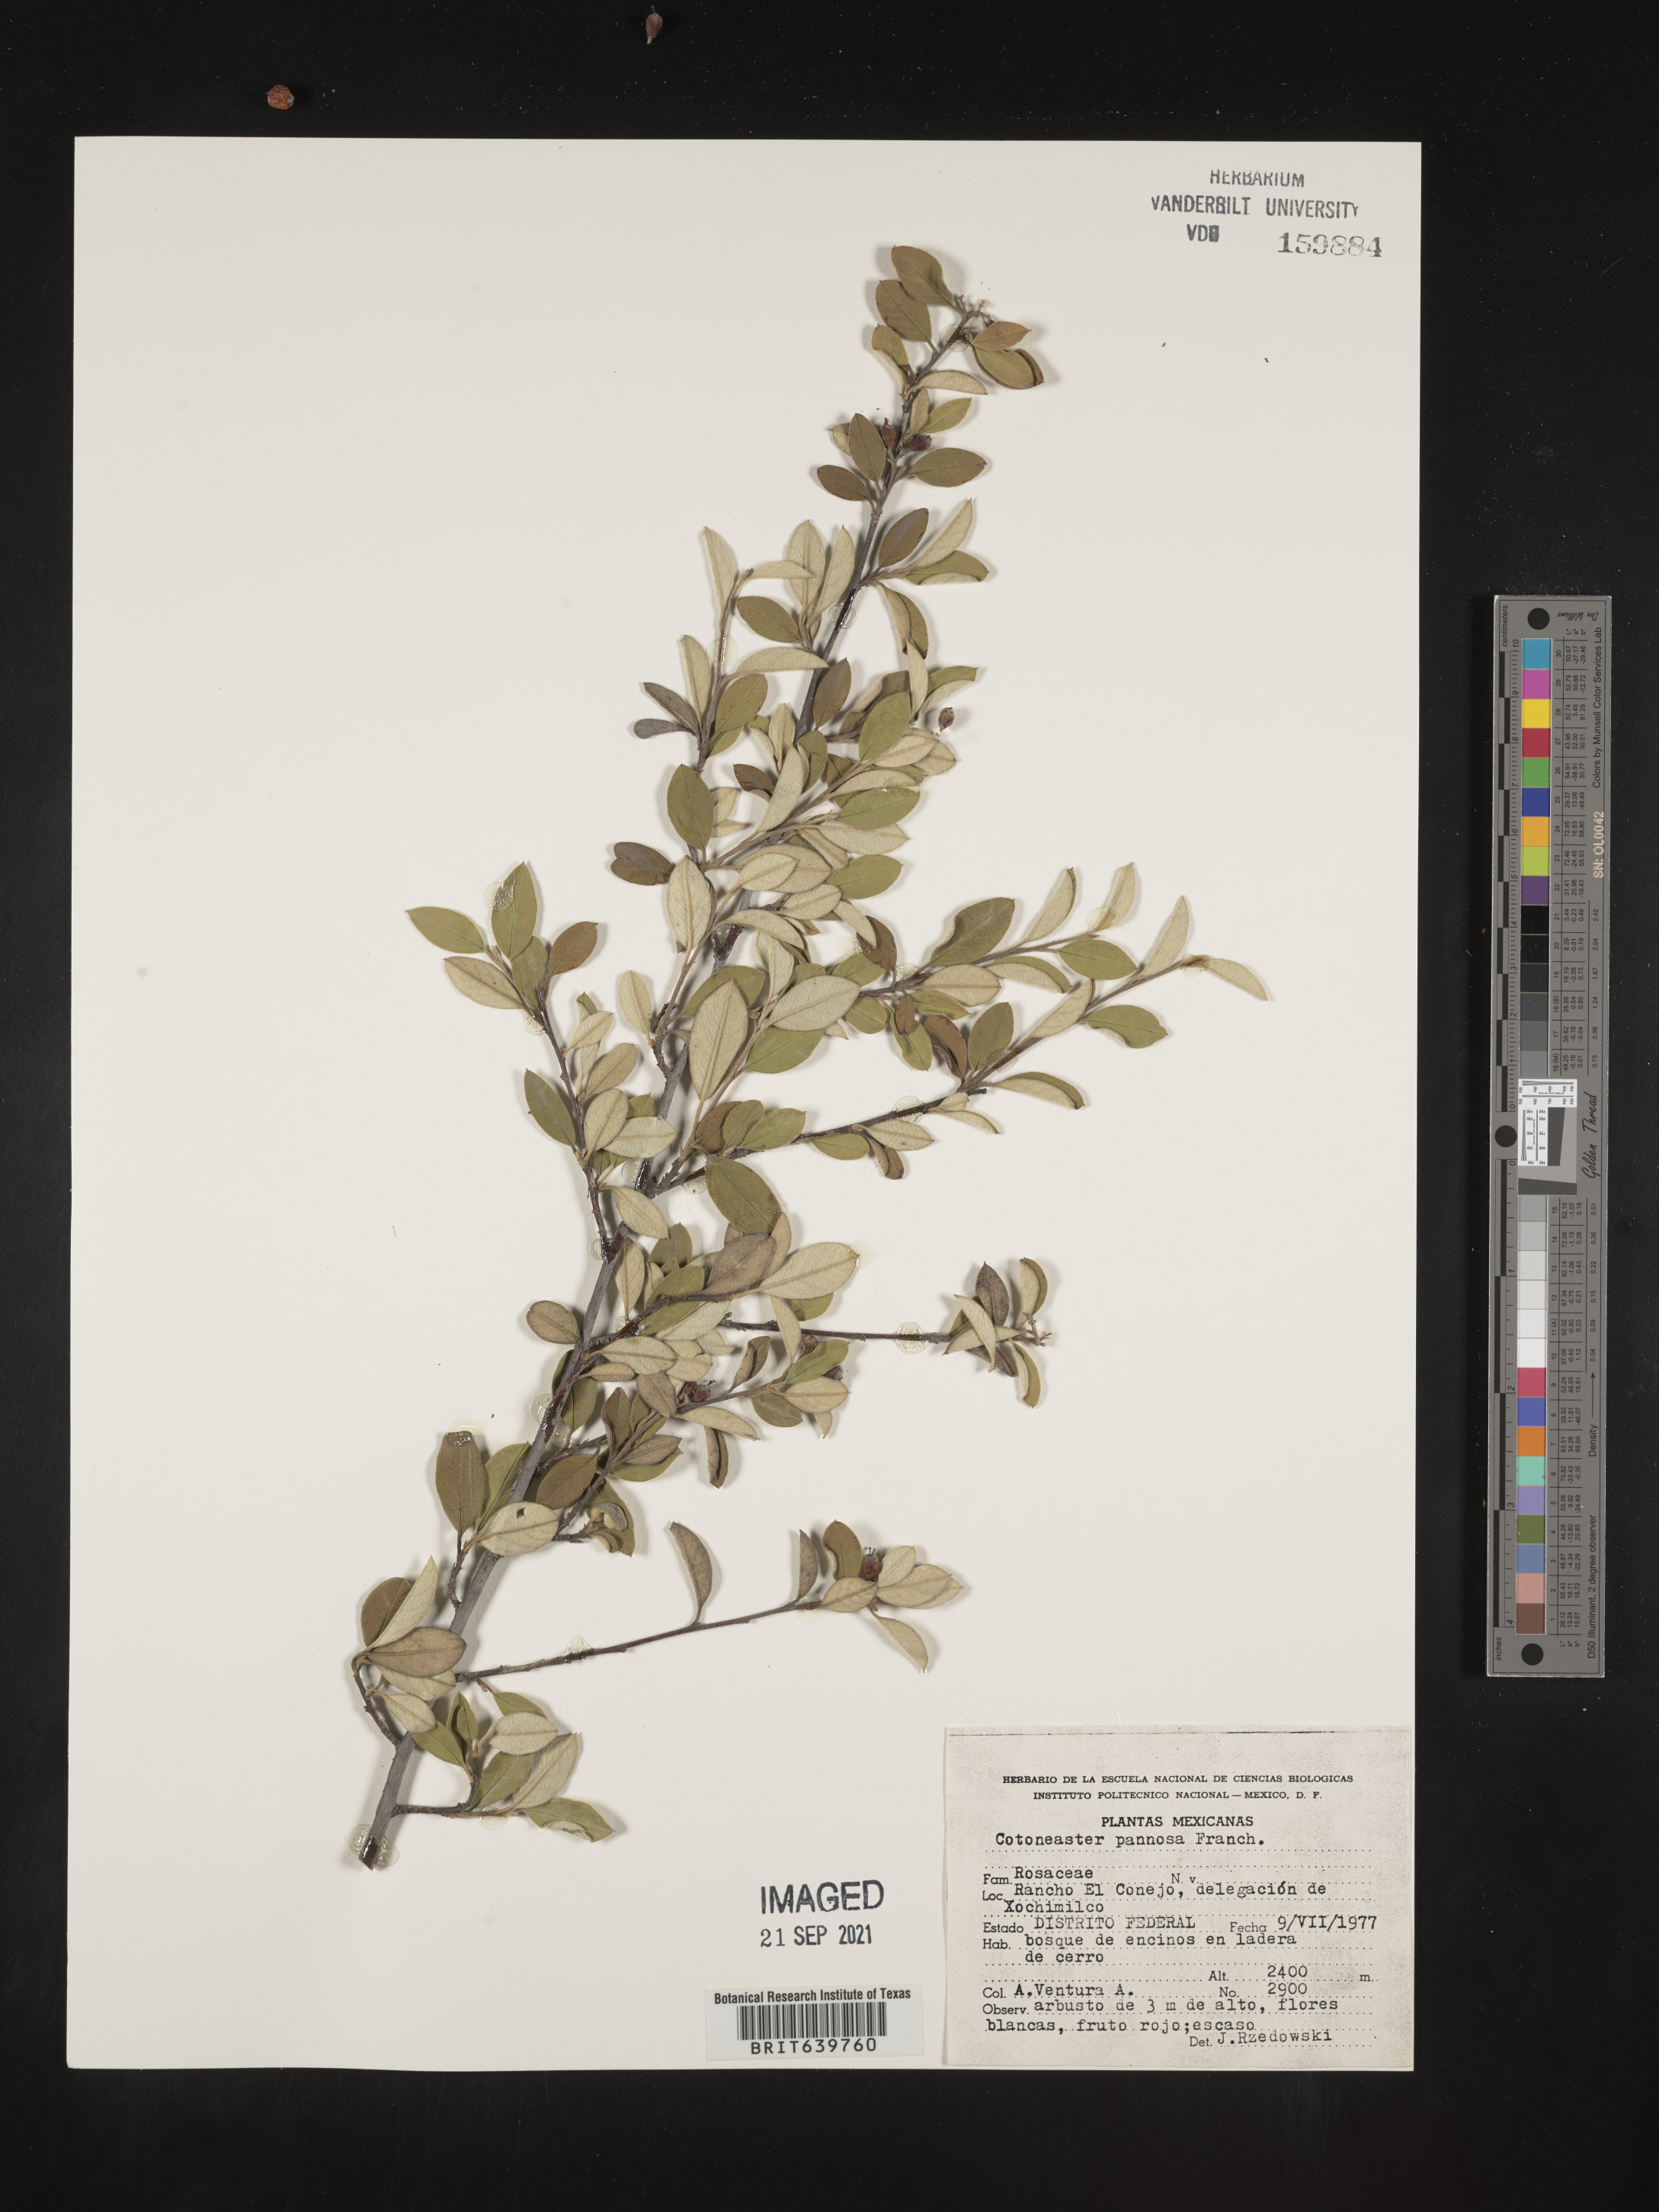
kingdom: Plantae
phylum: Tracheophyta
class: Magnoliopsida
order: Rosales
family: Rosaceae
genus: Cotoneaster
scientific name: Cotoneaster
